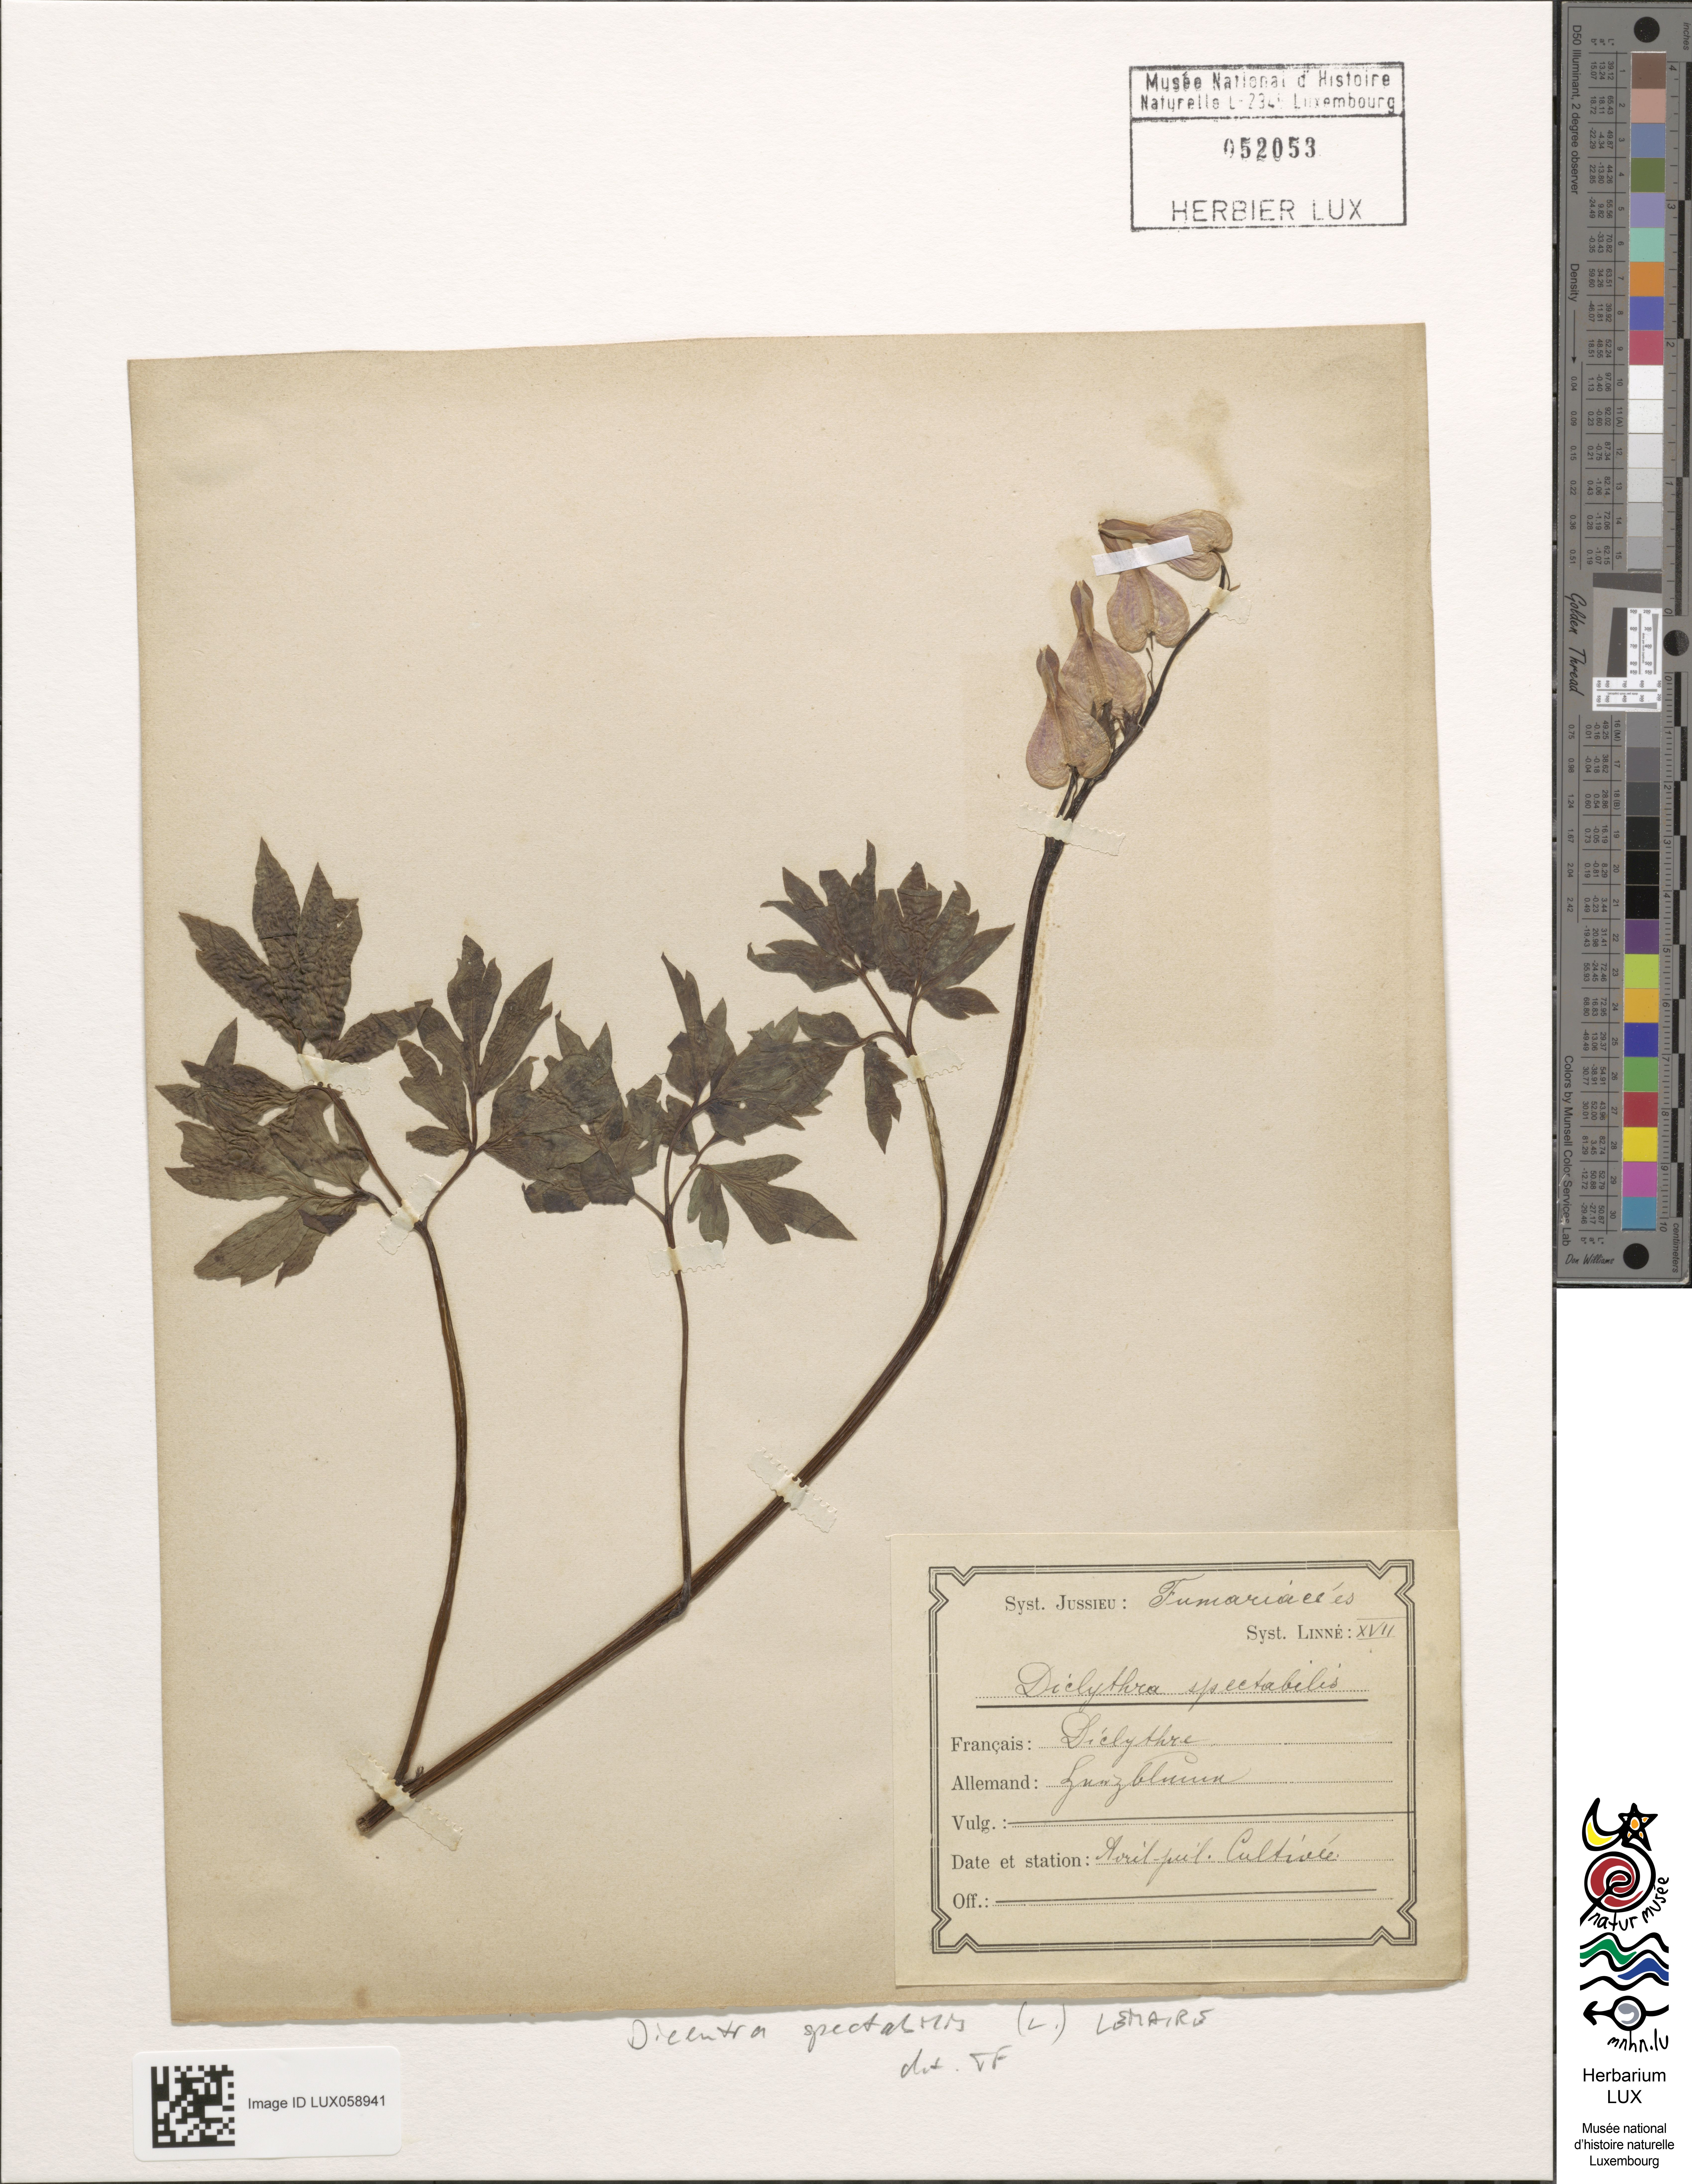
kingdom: Plantae
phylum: Tracheophyta
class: Magnoliopsida
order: Ranunculales
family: Papaveraceae
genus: Lamprocapnos
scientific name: Lamprocapnos spectabilis
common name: Asian bleeding-heart
